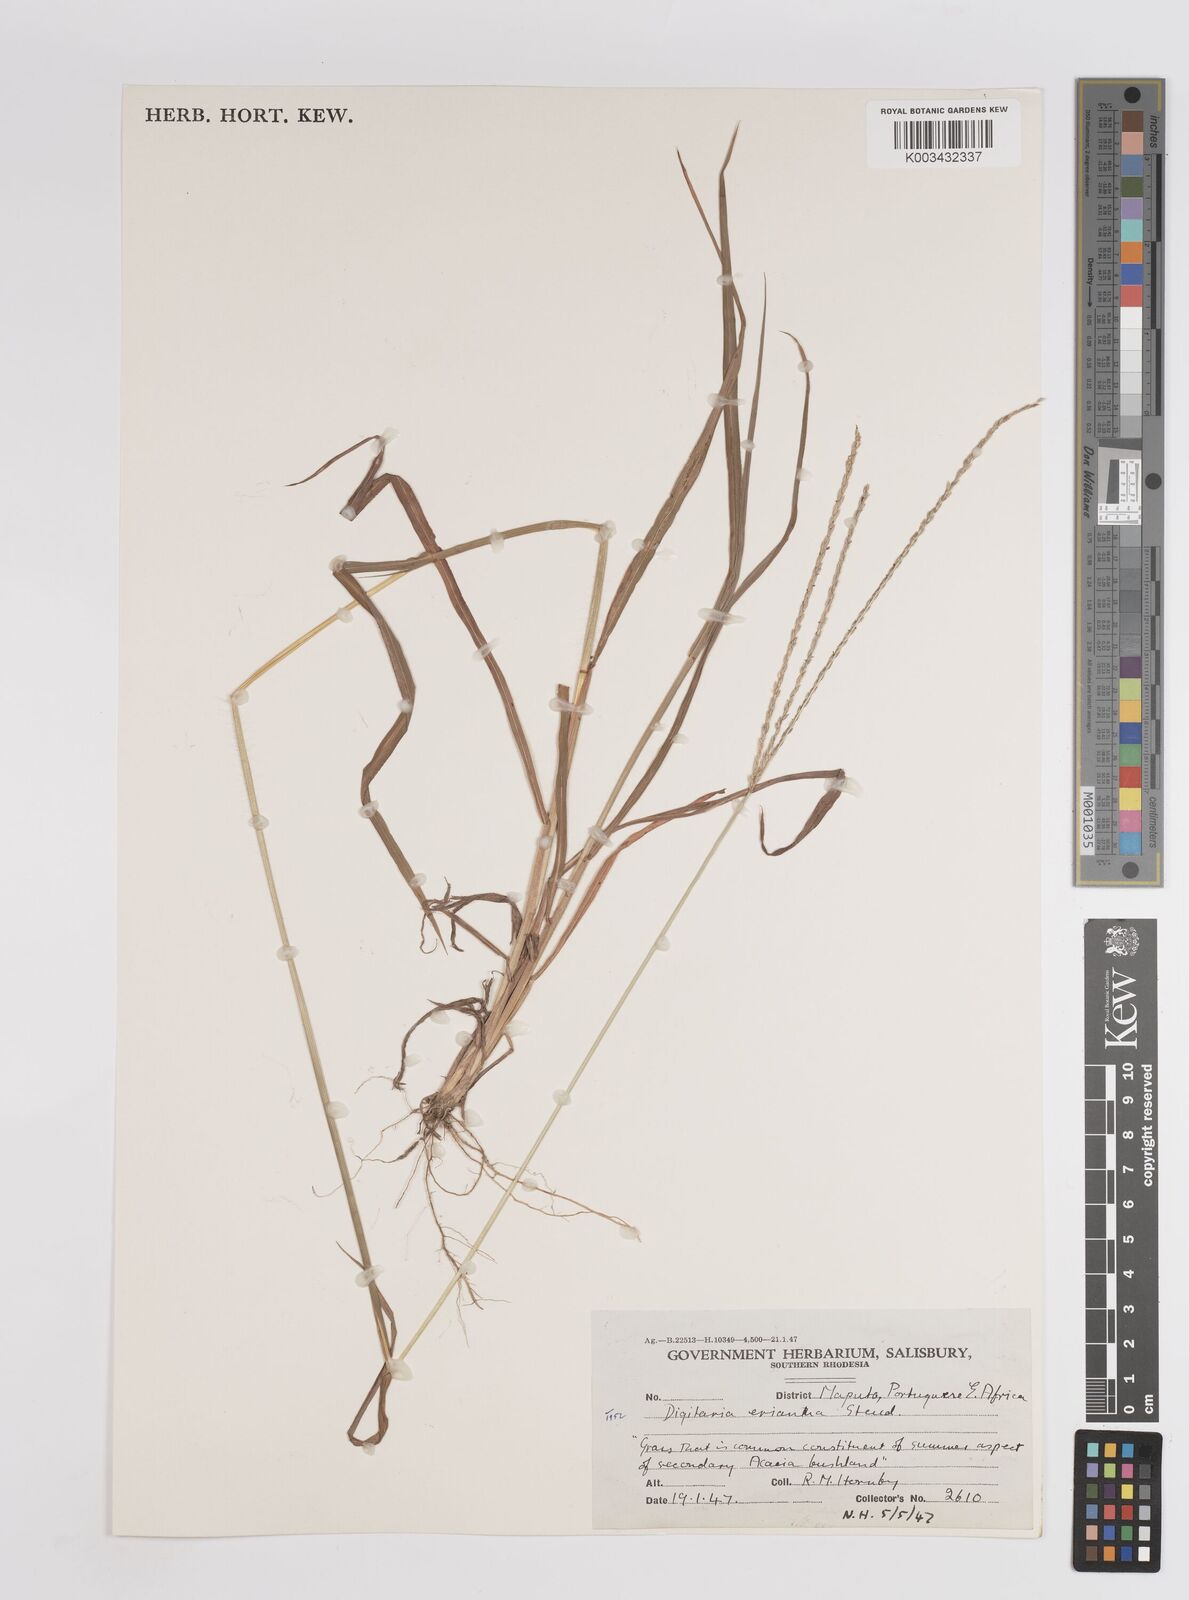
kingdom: Plantae
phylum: Tracheophyta
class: Liliopsida
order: Poales
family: Poaceae
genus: Digitaria
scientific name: Digitaria eriantha
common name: Digitgrass
